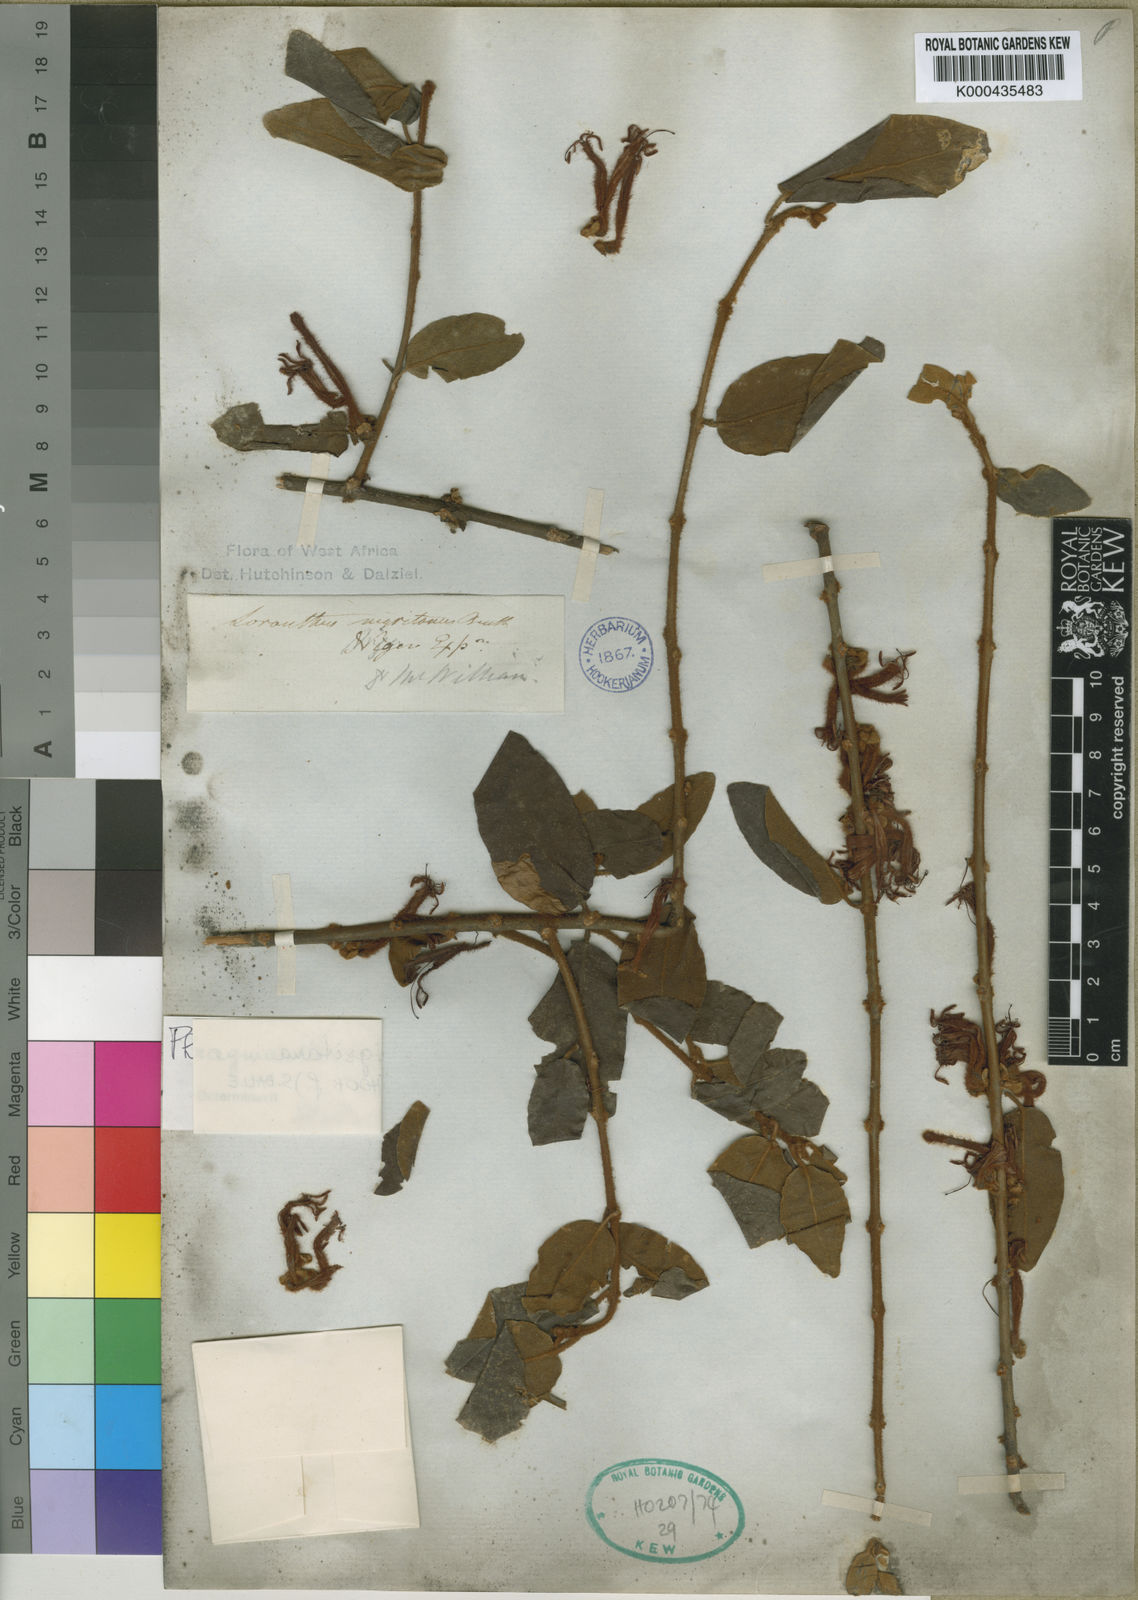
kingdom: Plantae
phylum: Tracheophyta
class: Magnoliopsida
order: Santalales
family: Loranthaceae
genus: Phragmanthera
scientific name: Phragmanthera nigritana
